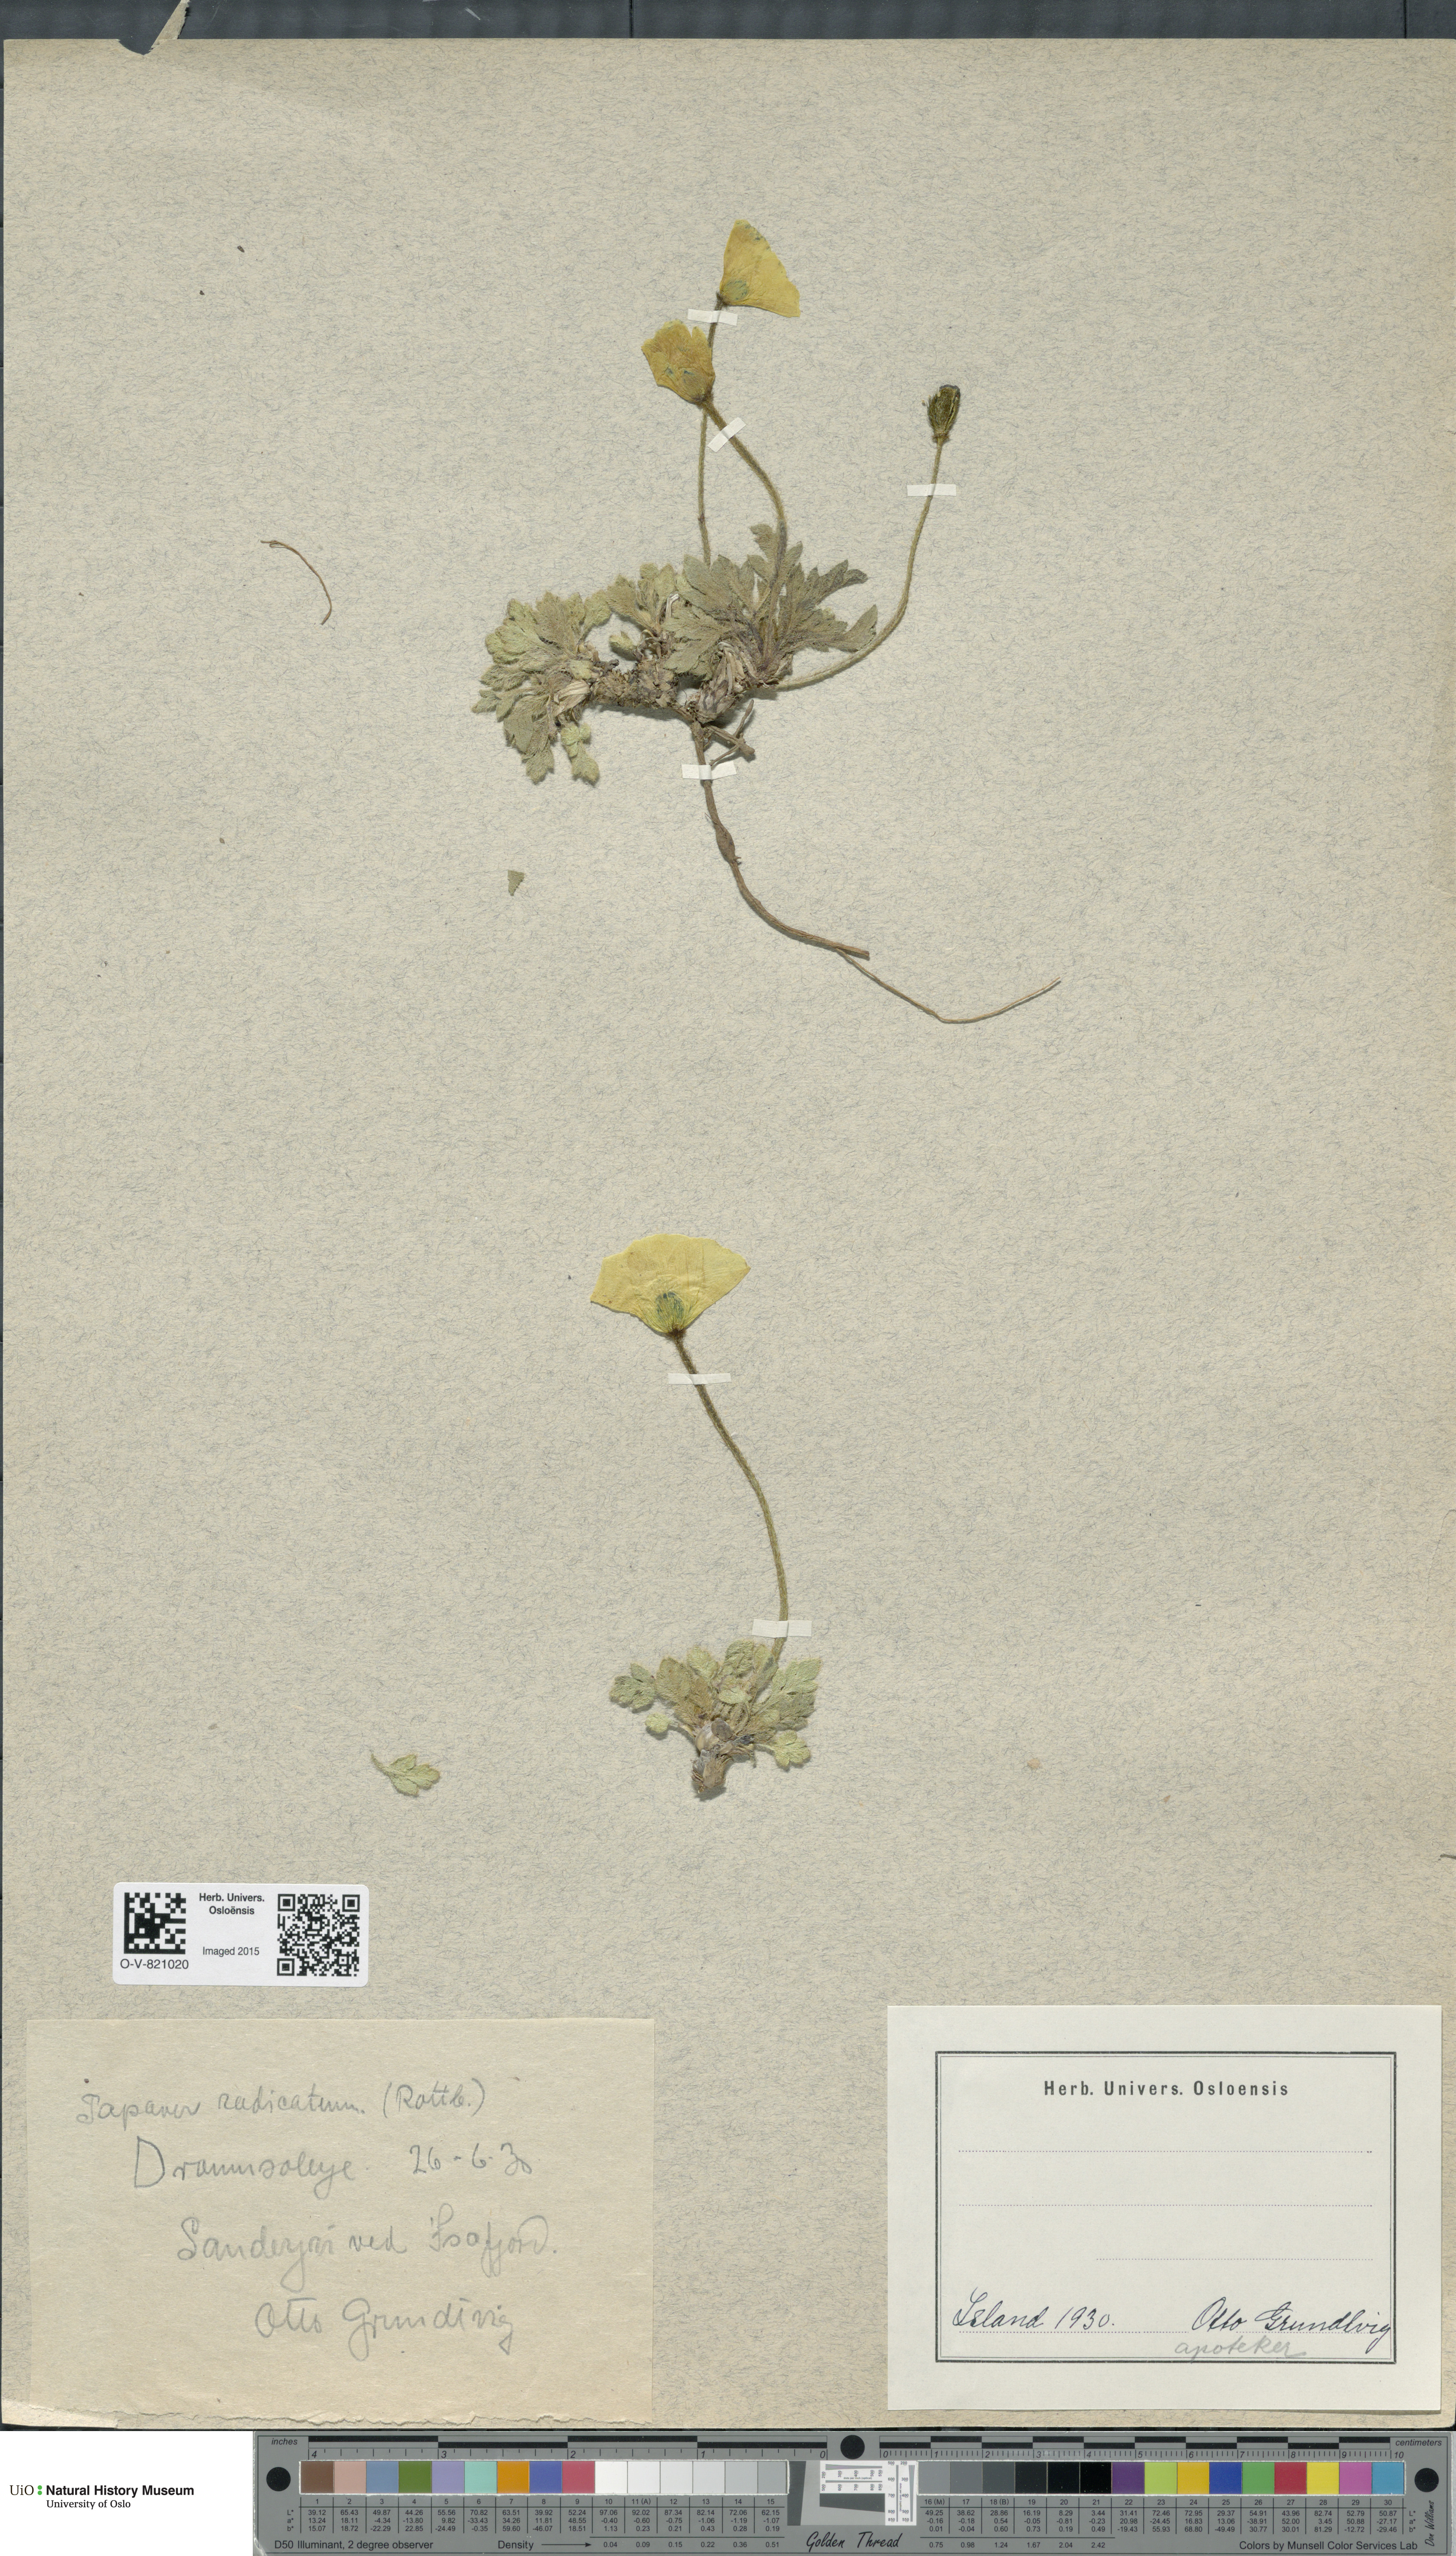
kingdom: Plantae
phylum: Tracheophyta
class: Magnoliopsida
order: Ranunculales
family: Papaveraceae
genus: Papaver
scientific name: Papaver radicatum
